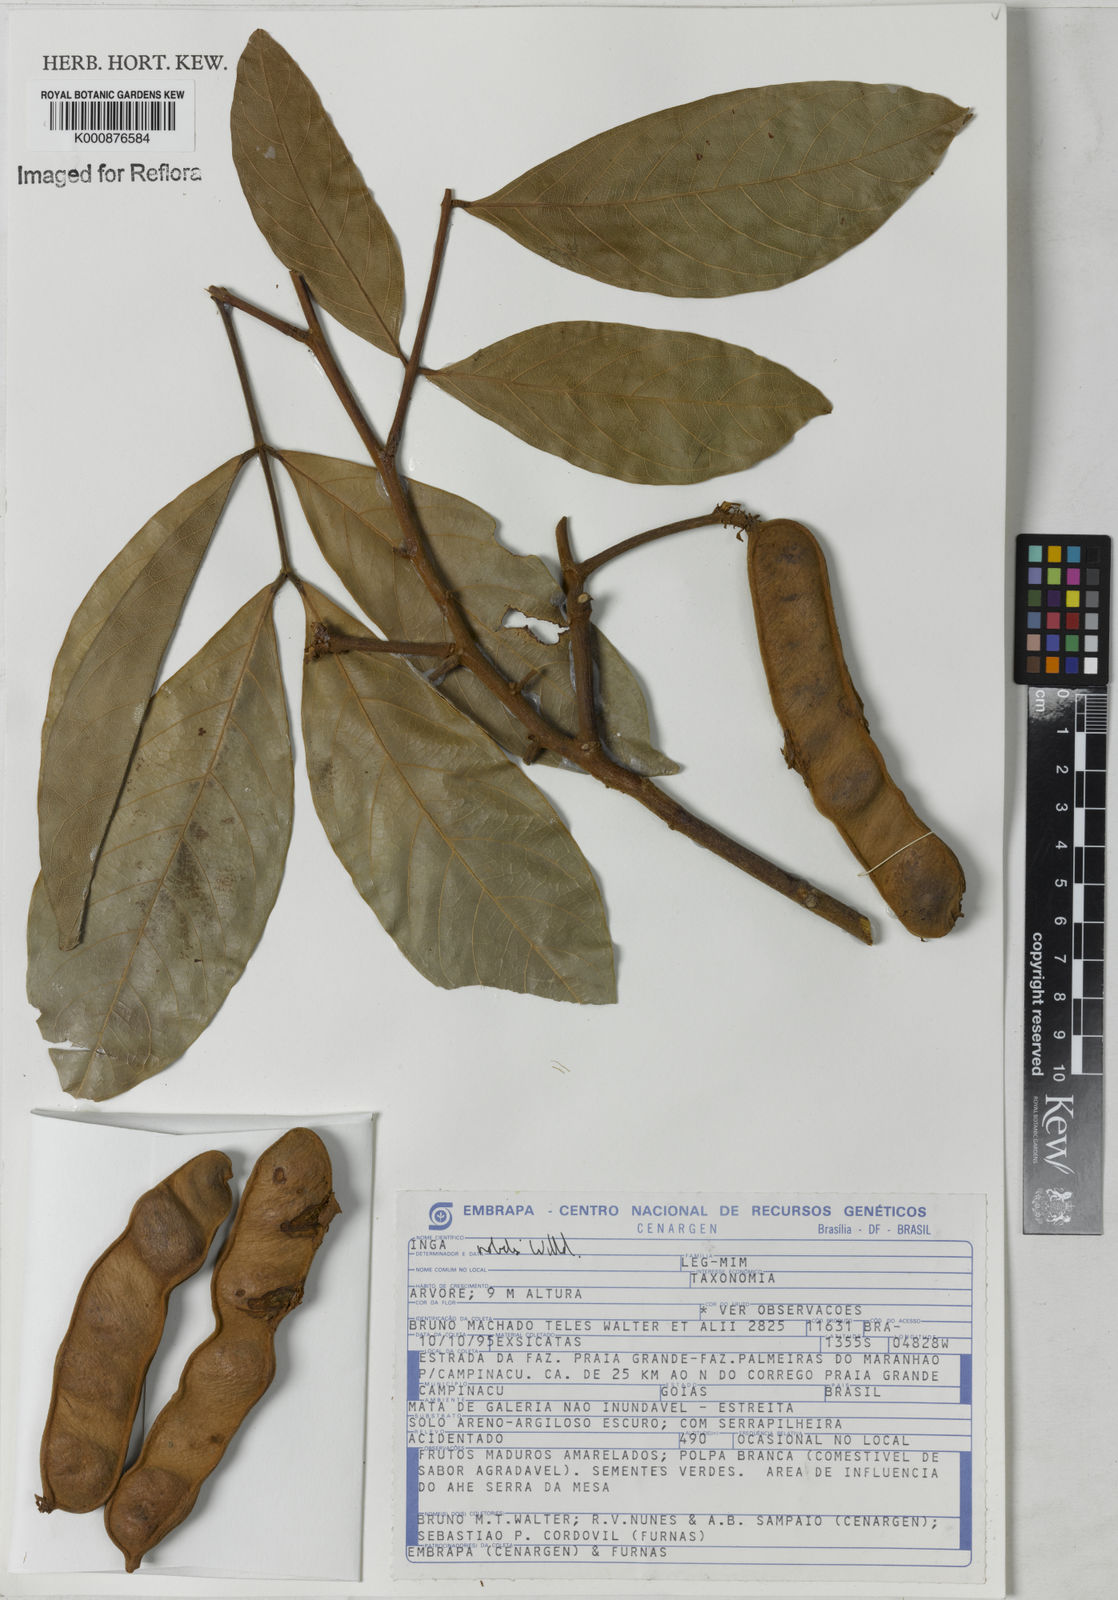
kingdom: Plantae
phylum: Tracheophyta
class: Magnoliopsida
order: Fabales
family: Fabaceae
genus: Inga
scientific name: Inga nobilis
